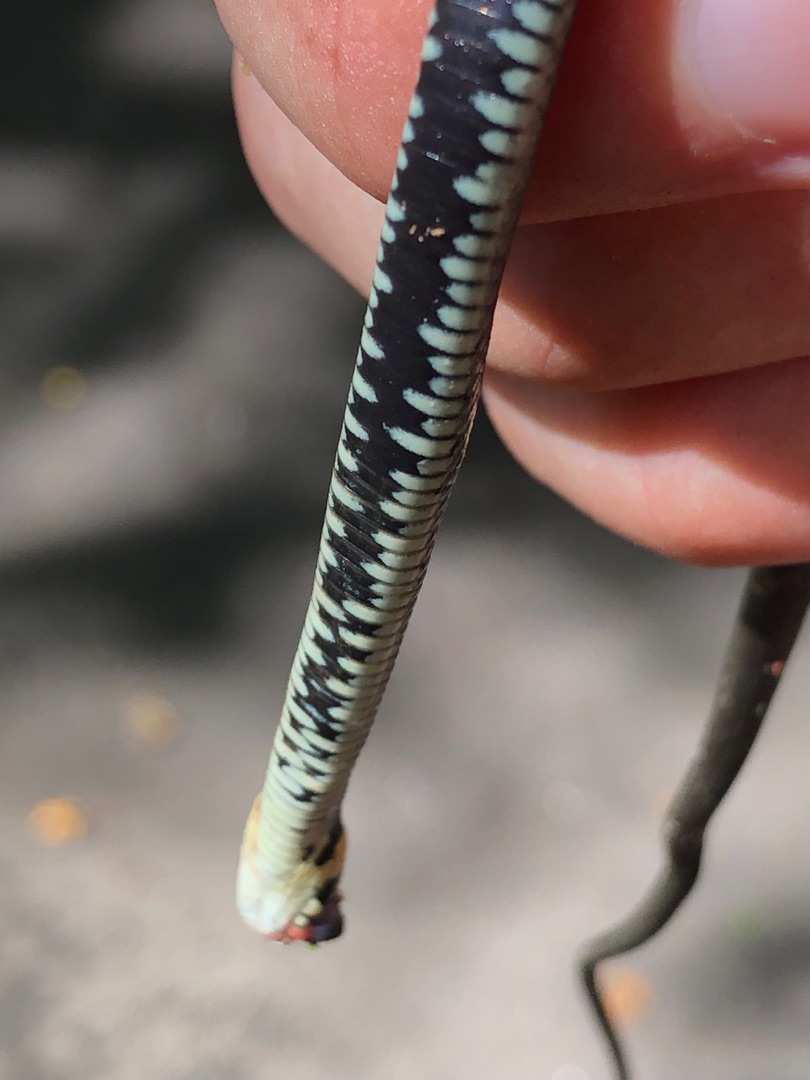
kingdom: Animalia
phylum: Chordata
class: Squamata
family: Colubridae
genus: Natrix
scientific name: Natrix natrix
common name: Snog
